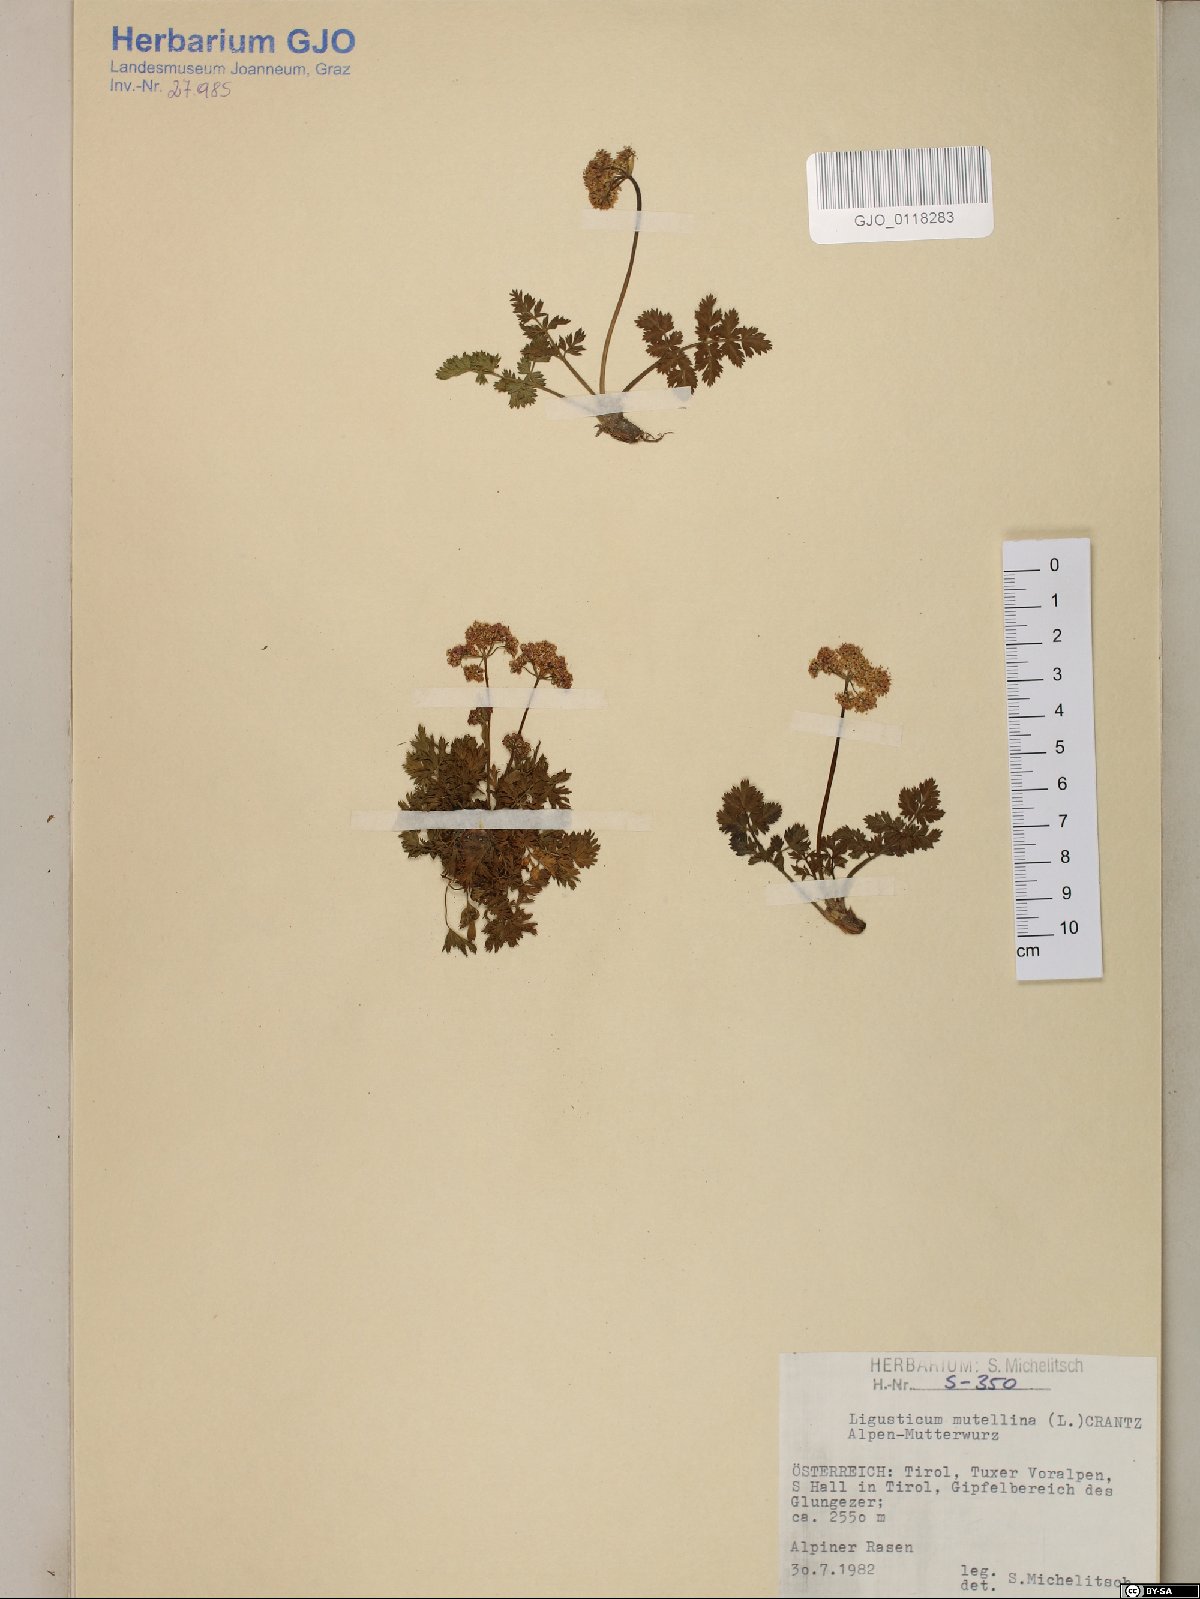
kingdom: Plantae
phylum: Tracheophyta
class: Magnoliopsida
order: Apiales
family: Apiaceae
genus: Mutellina
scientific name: Mutellina adonidifolia
